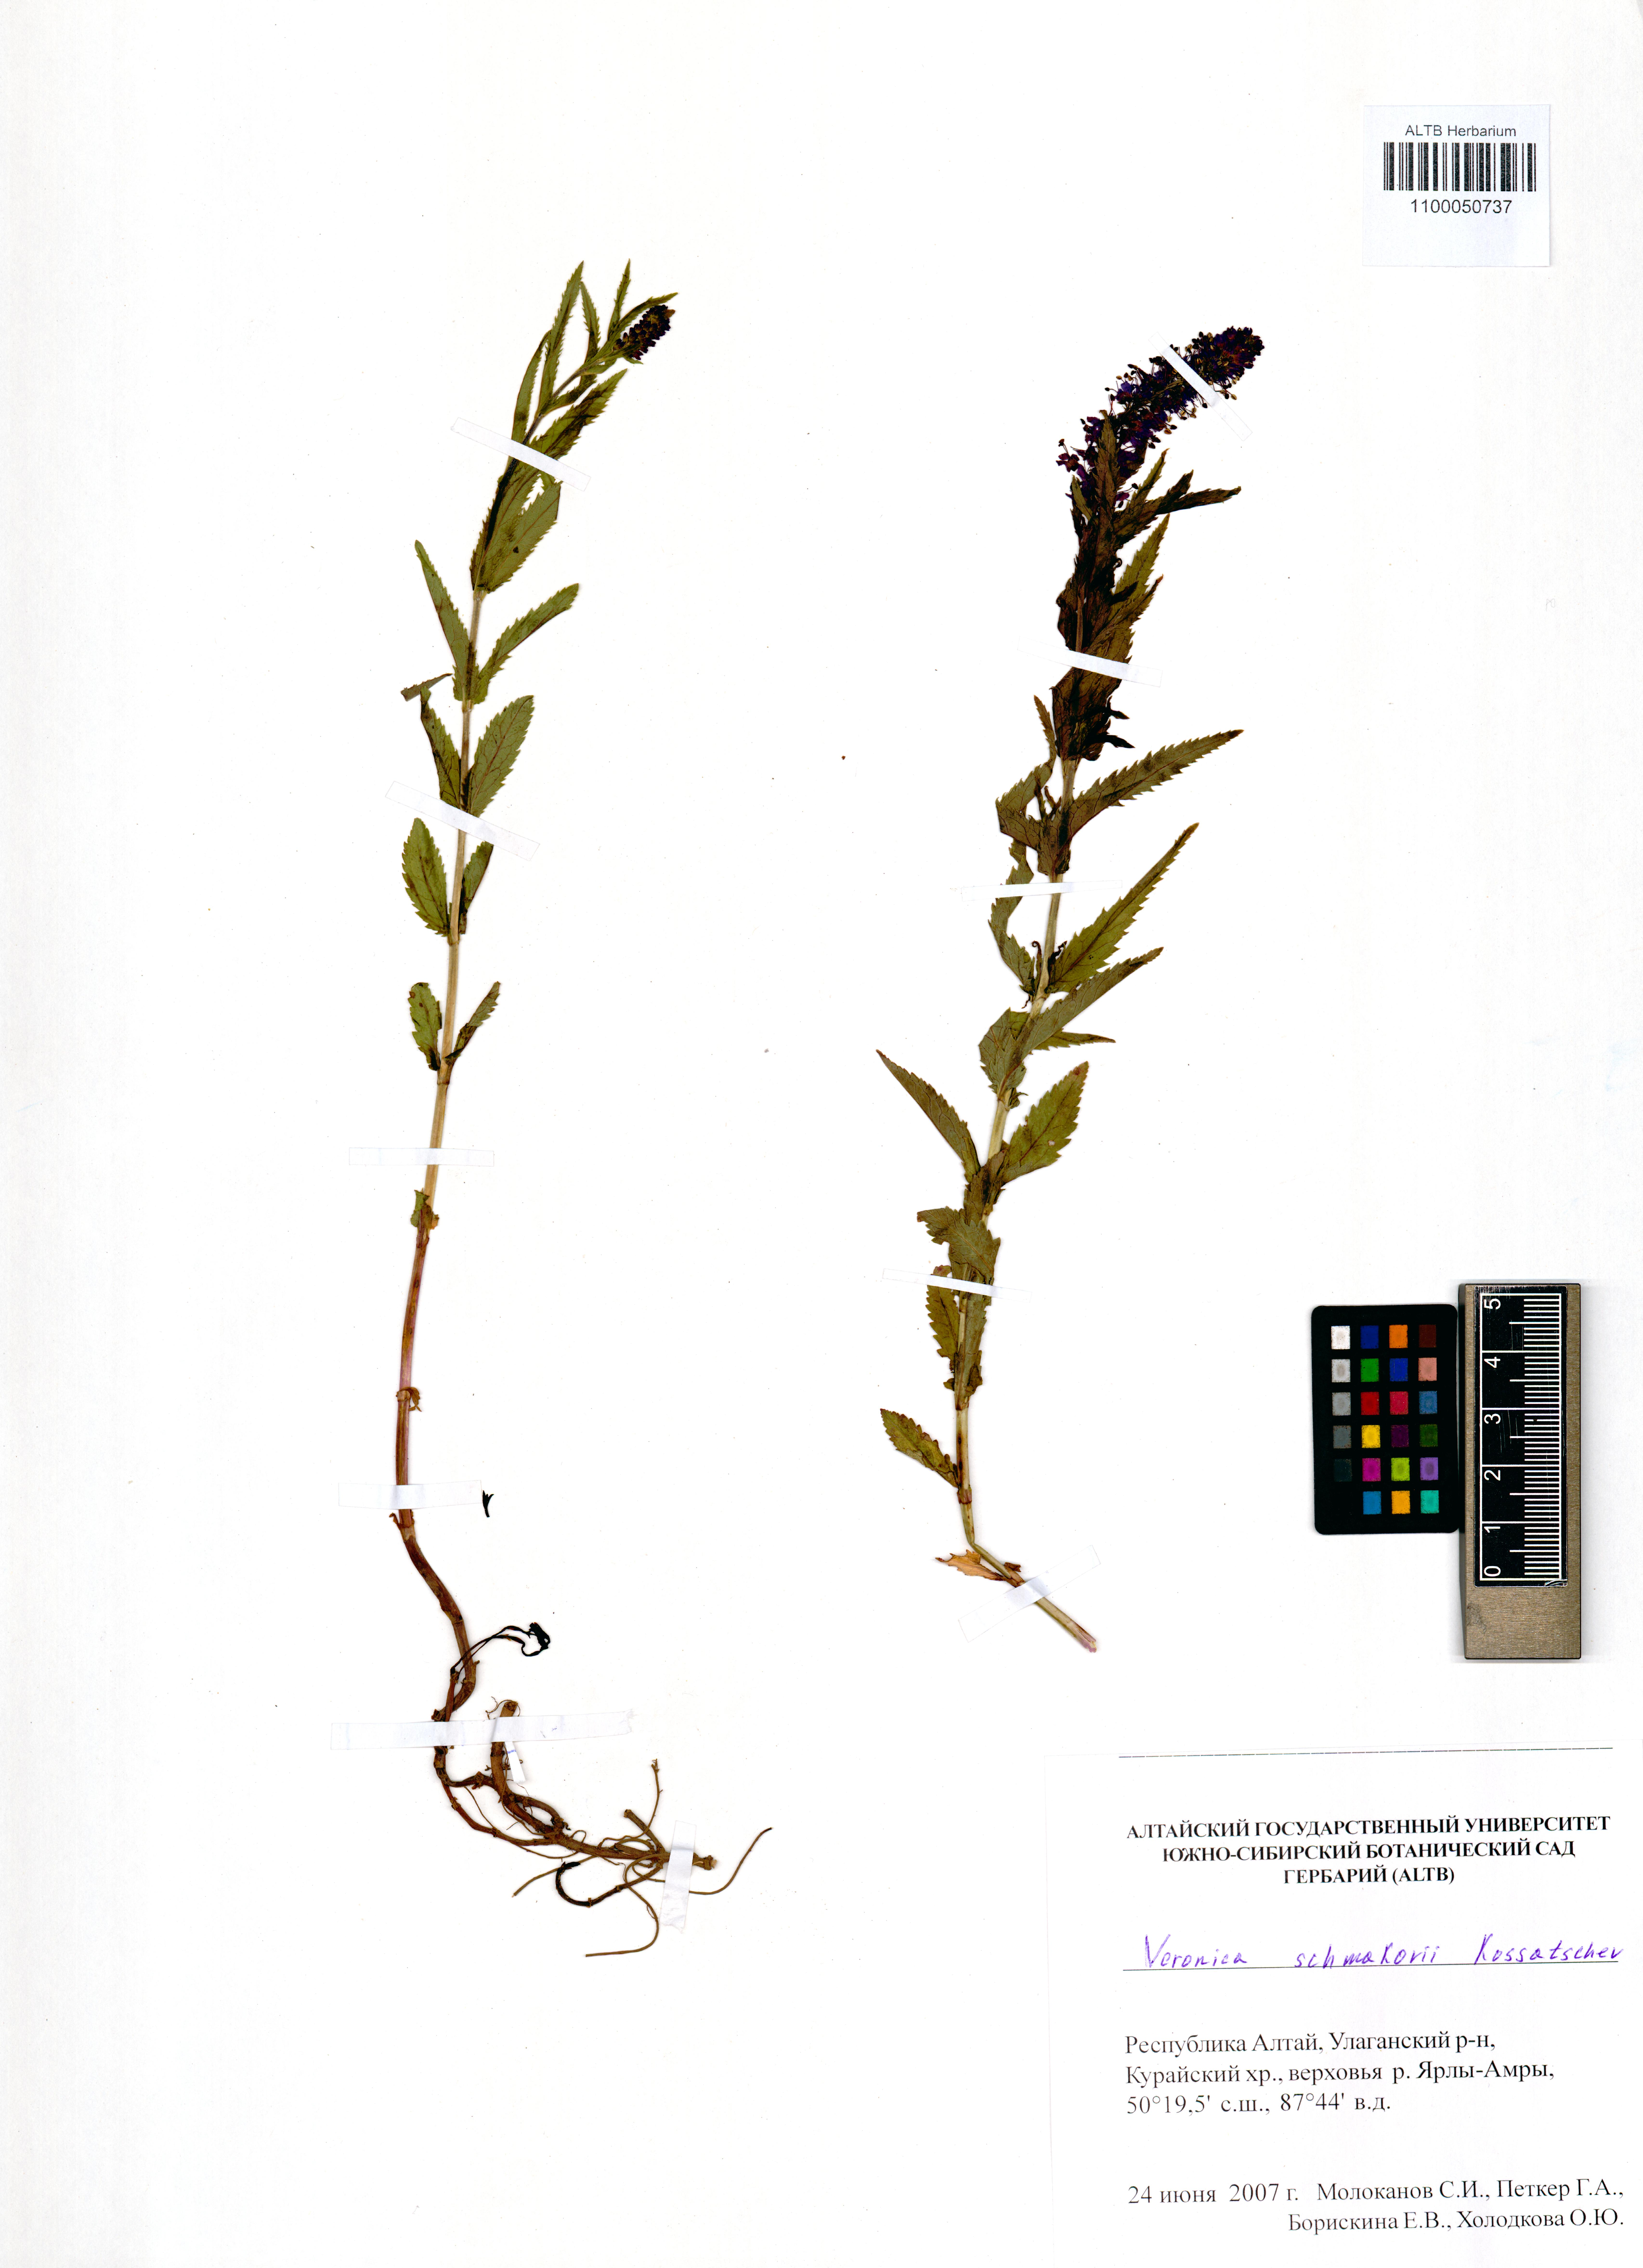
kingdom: Plantae
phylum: Tracheophyta
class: Magnoliopsida
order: Lamiales
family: Plantaginaceae
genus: Veronica
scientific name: Veronica schmakovii
